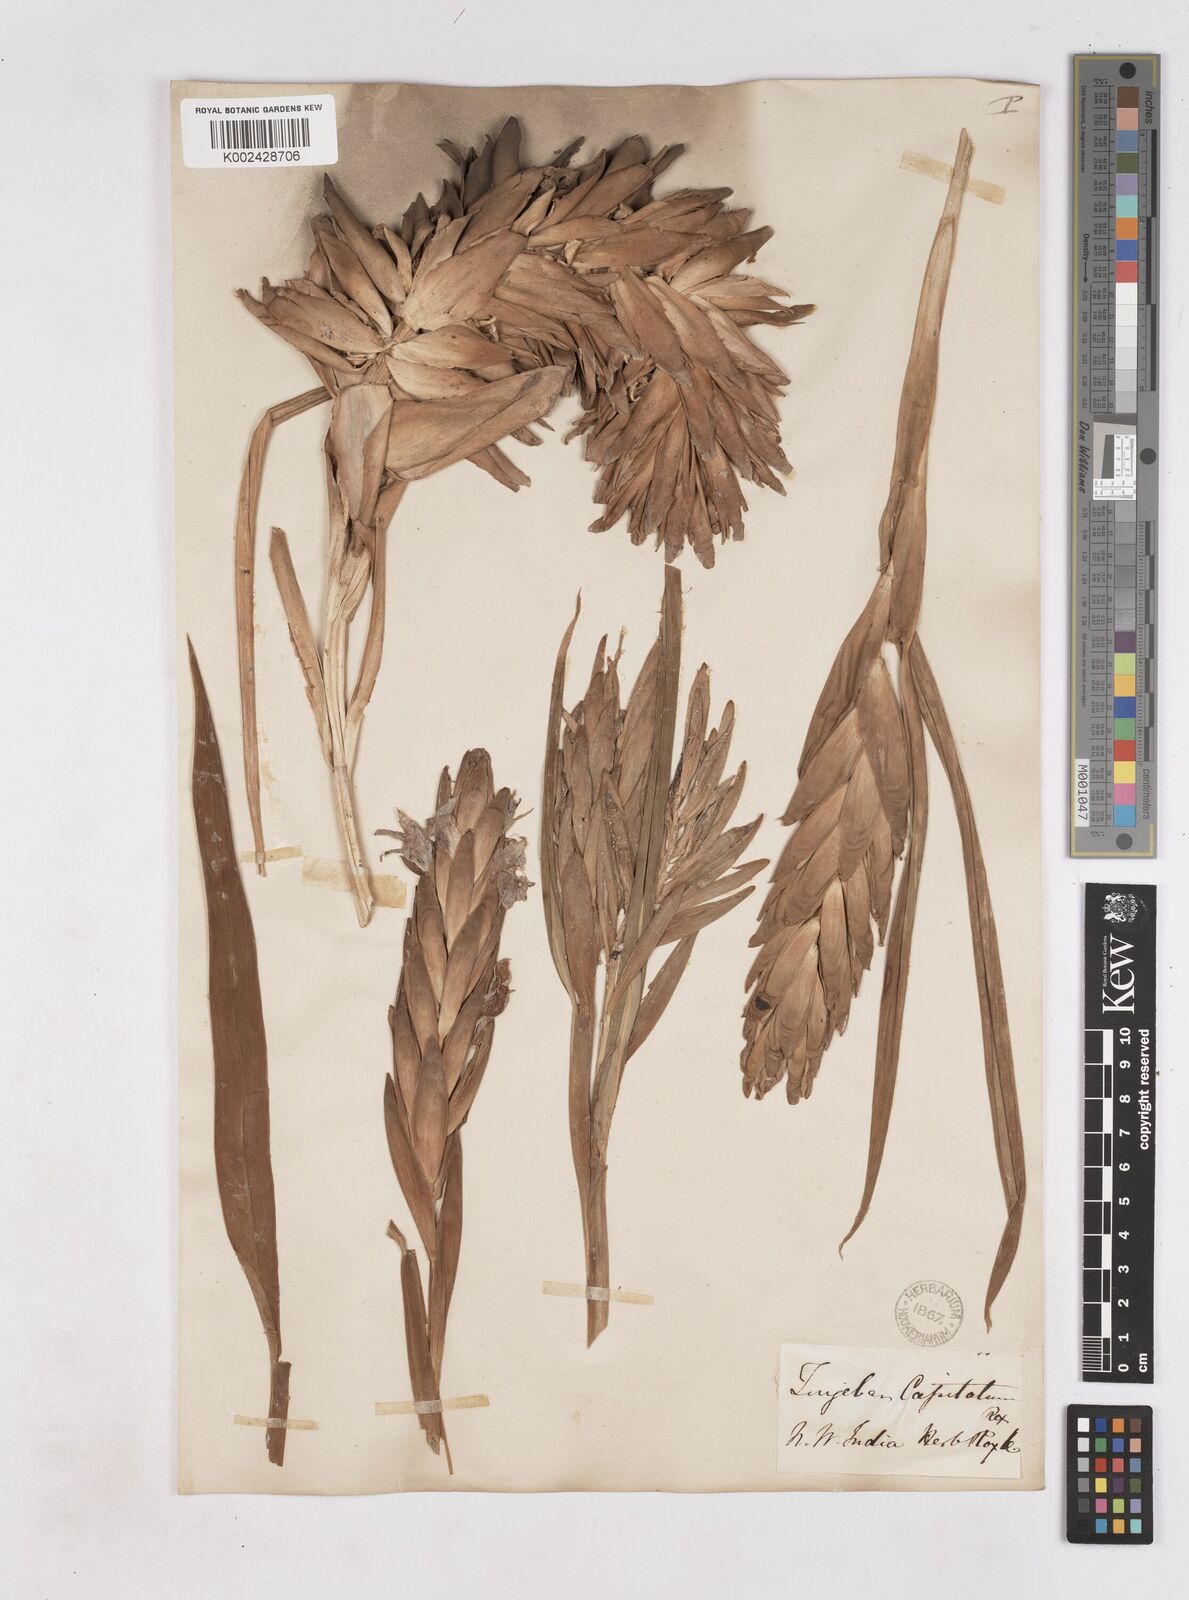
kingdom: Plantae
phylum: Tracheophyta
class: Liliopsida
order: Zingiberales
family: Zingiberaceae
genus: Zingiber
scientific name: Zingiber capitatum
